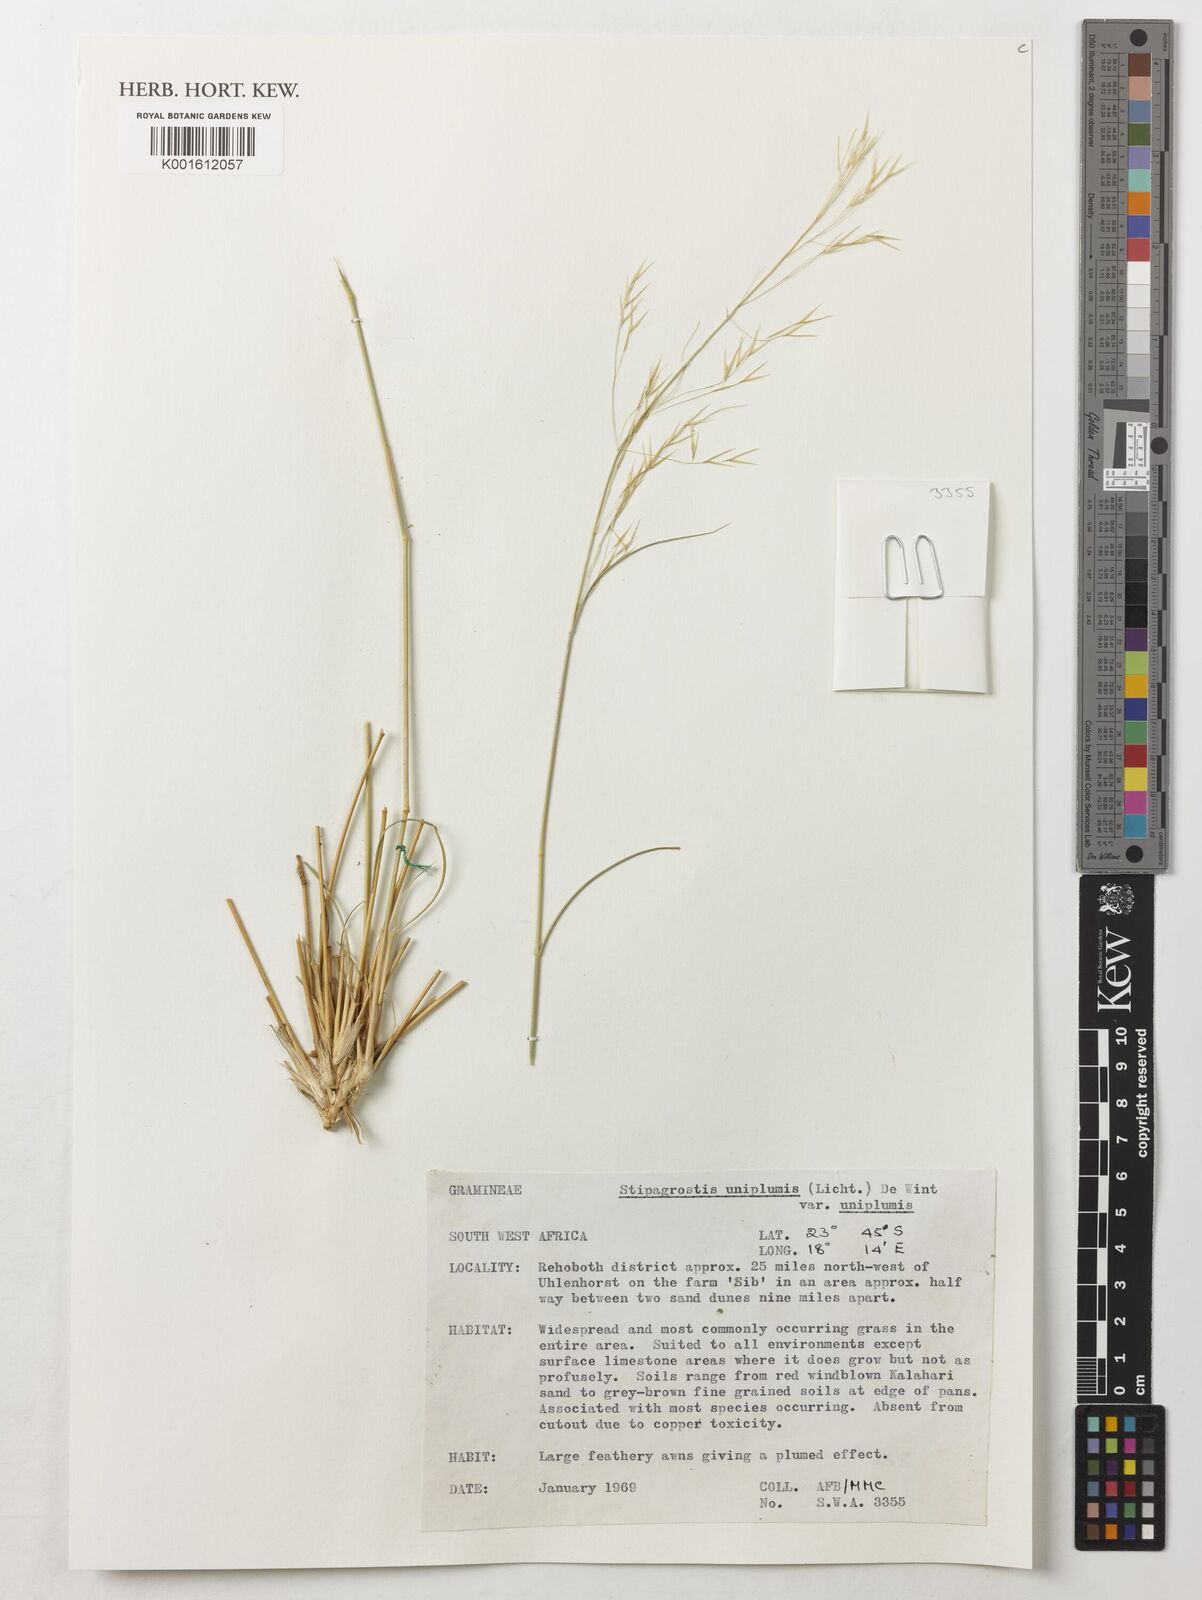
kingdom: Plantae
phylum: Tracheophyta
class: Liliopsida
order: Poales
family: Poaceae
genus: Stipagrostis
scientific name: Stipagrostis uniplumis
